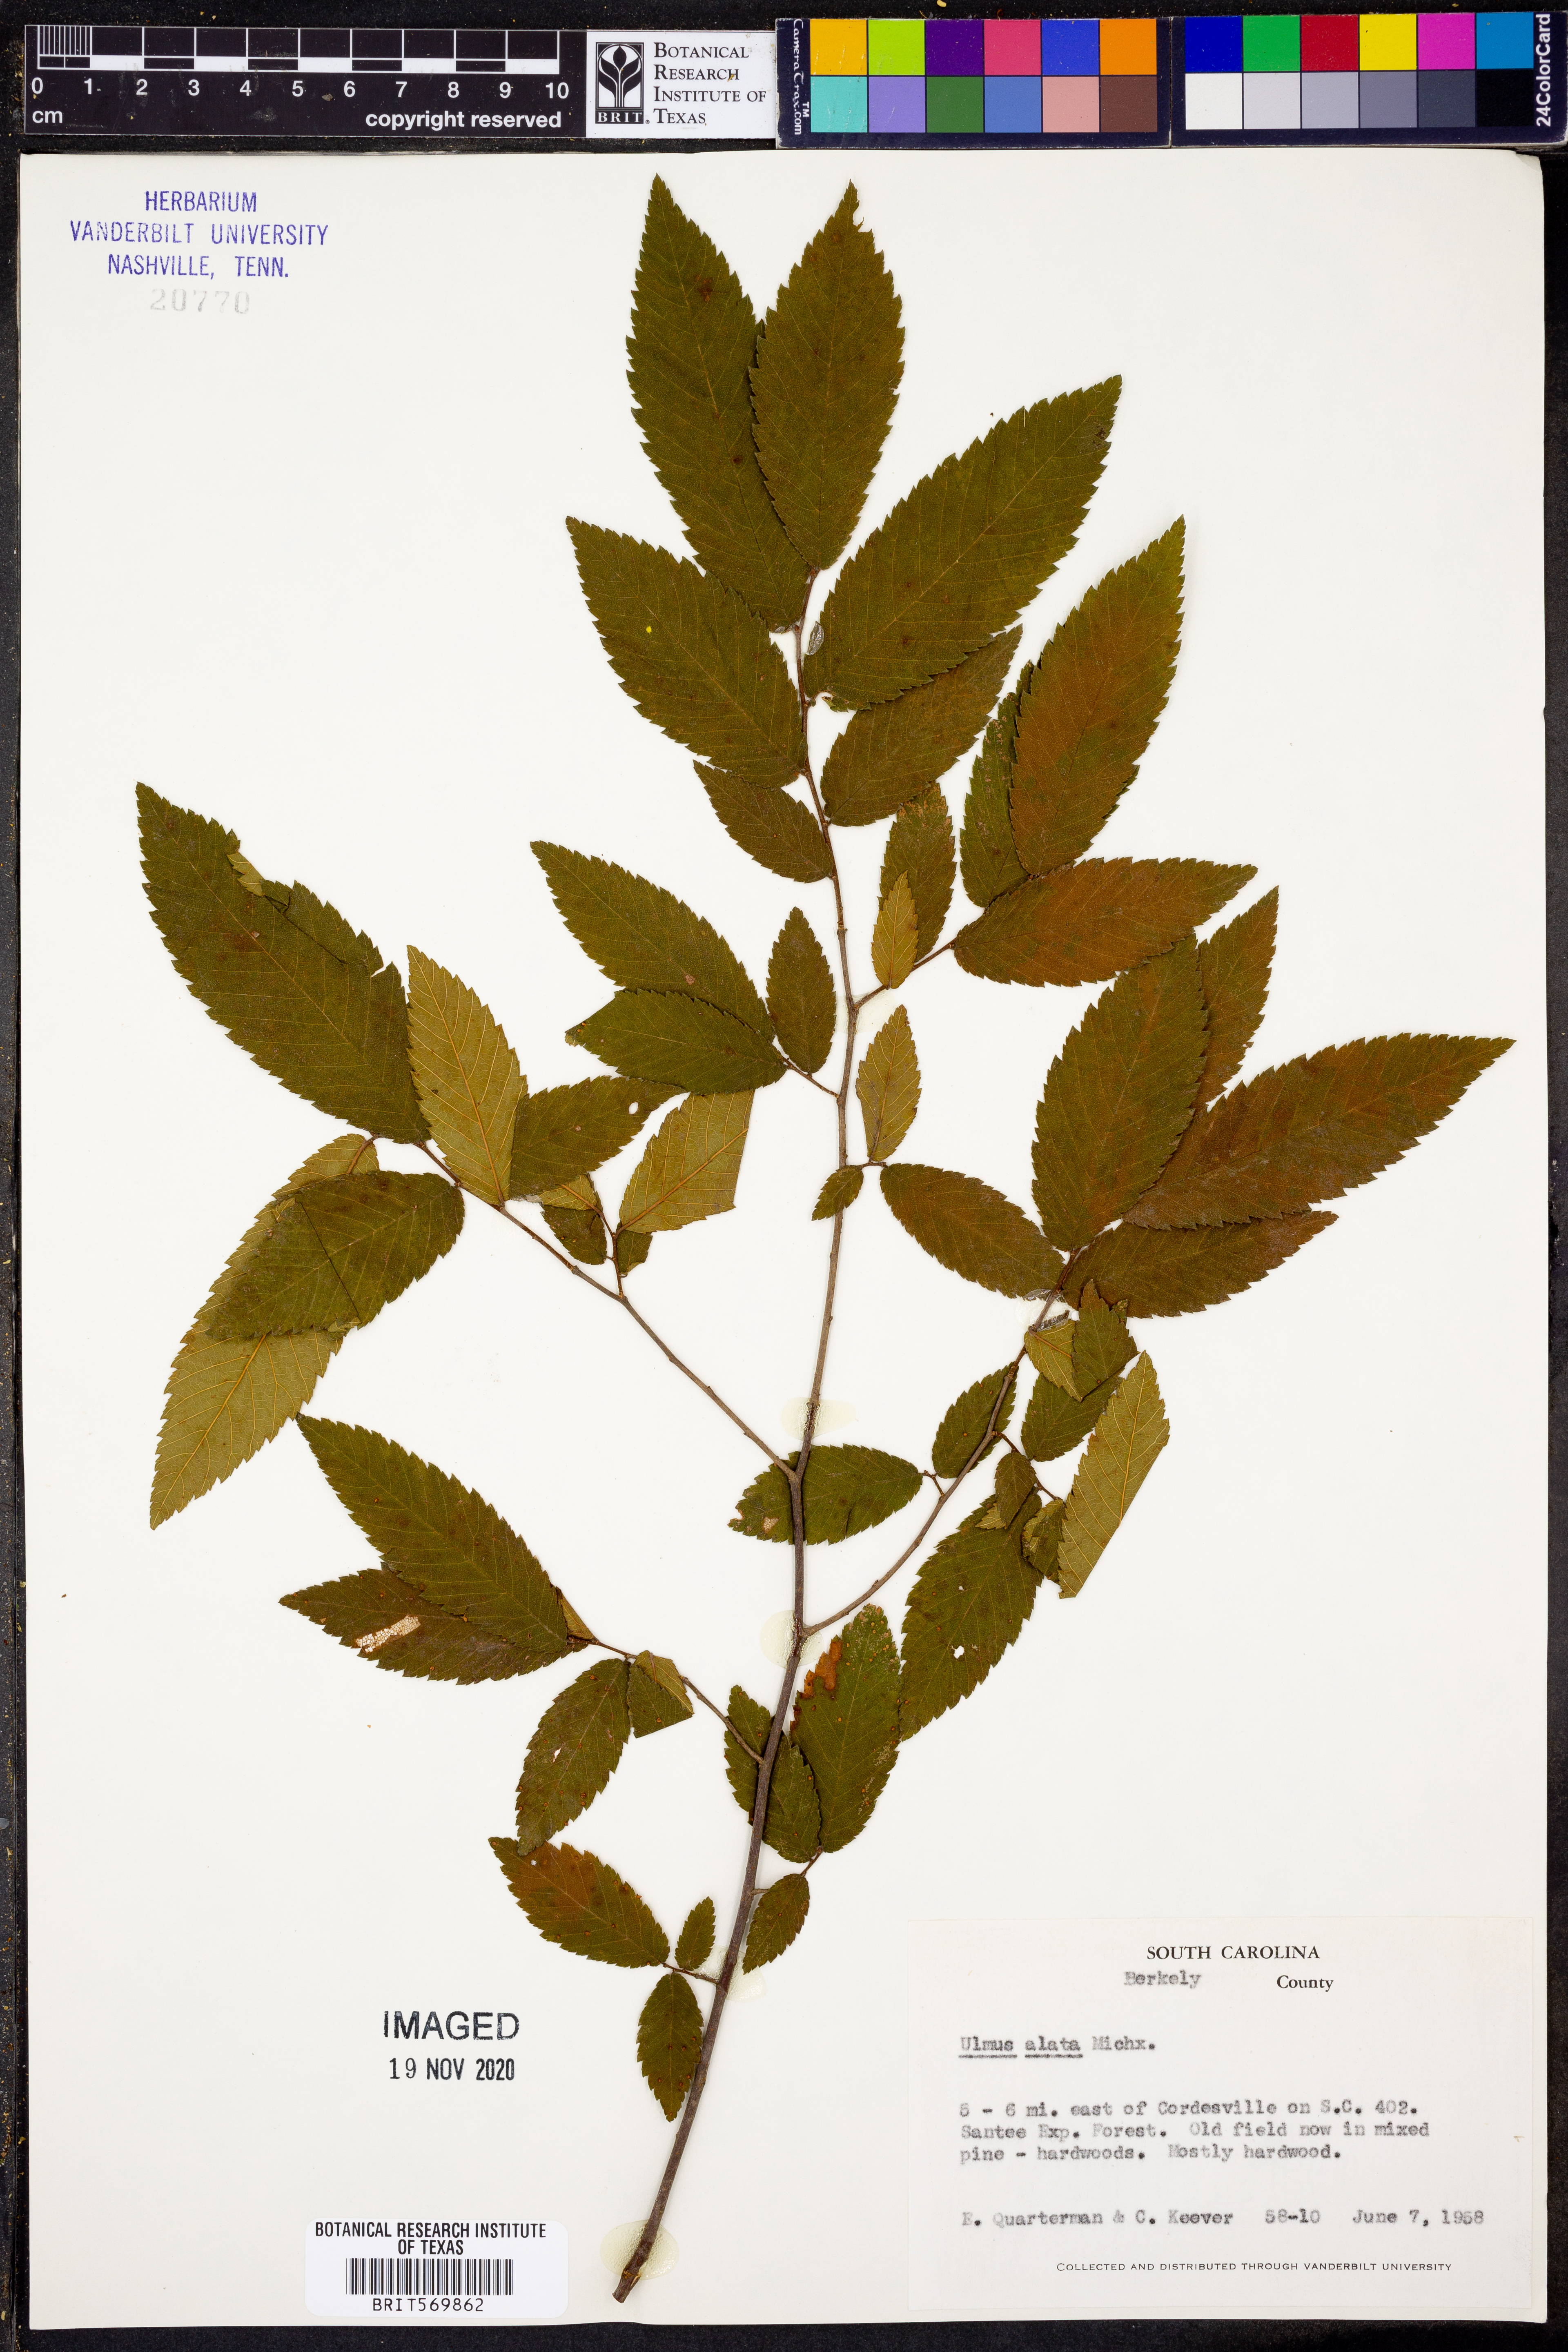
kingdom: Plantae
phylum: Tracheophyta
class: Magnoliopsida
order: Rosales
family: Ulmaceae
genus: Ulmus
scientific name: Ulmus alata
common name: Winged elm
